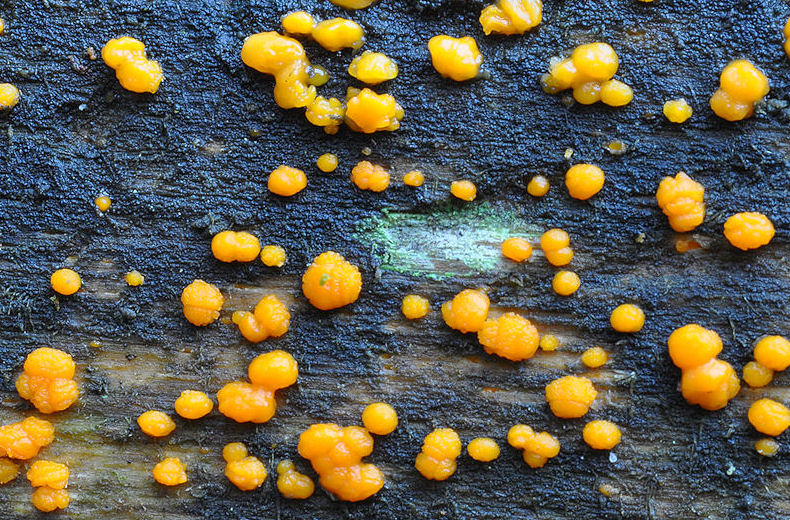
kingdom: Fungi
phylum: Basidiomycota
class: Dacrymycetes
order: Dacrymycetales
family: Dacrymycetaceae
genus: Dacrymyces
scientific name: Dacrymyces stillatus
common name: almindelig tåresvamp
